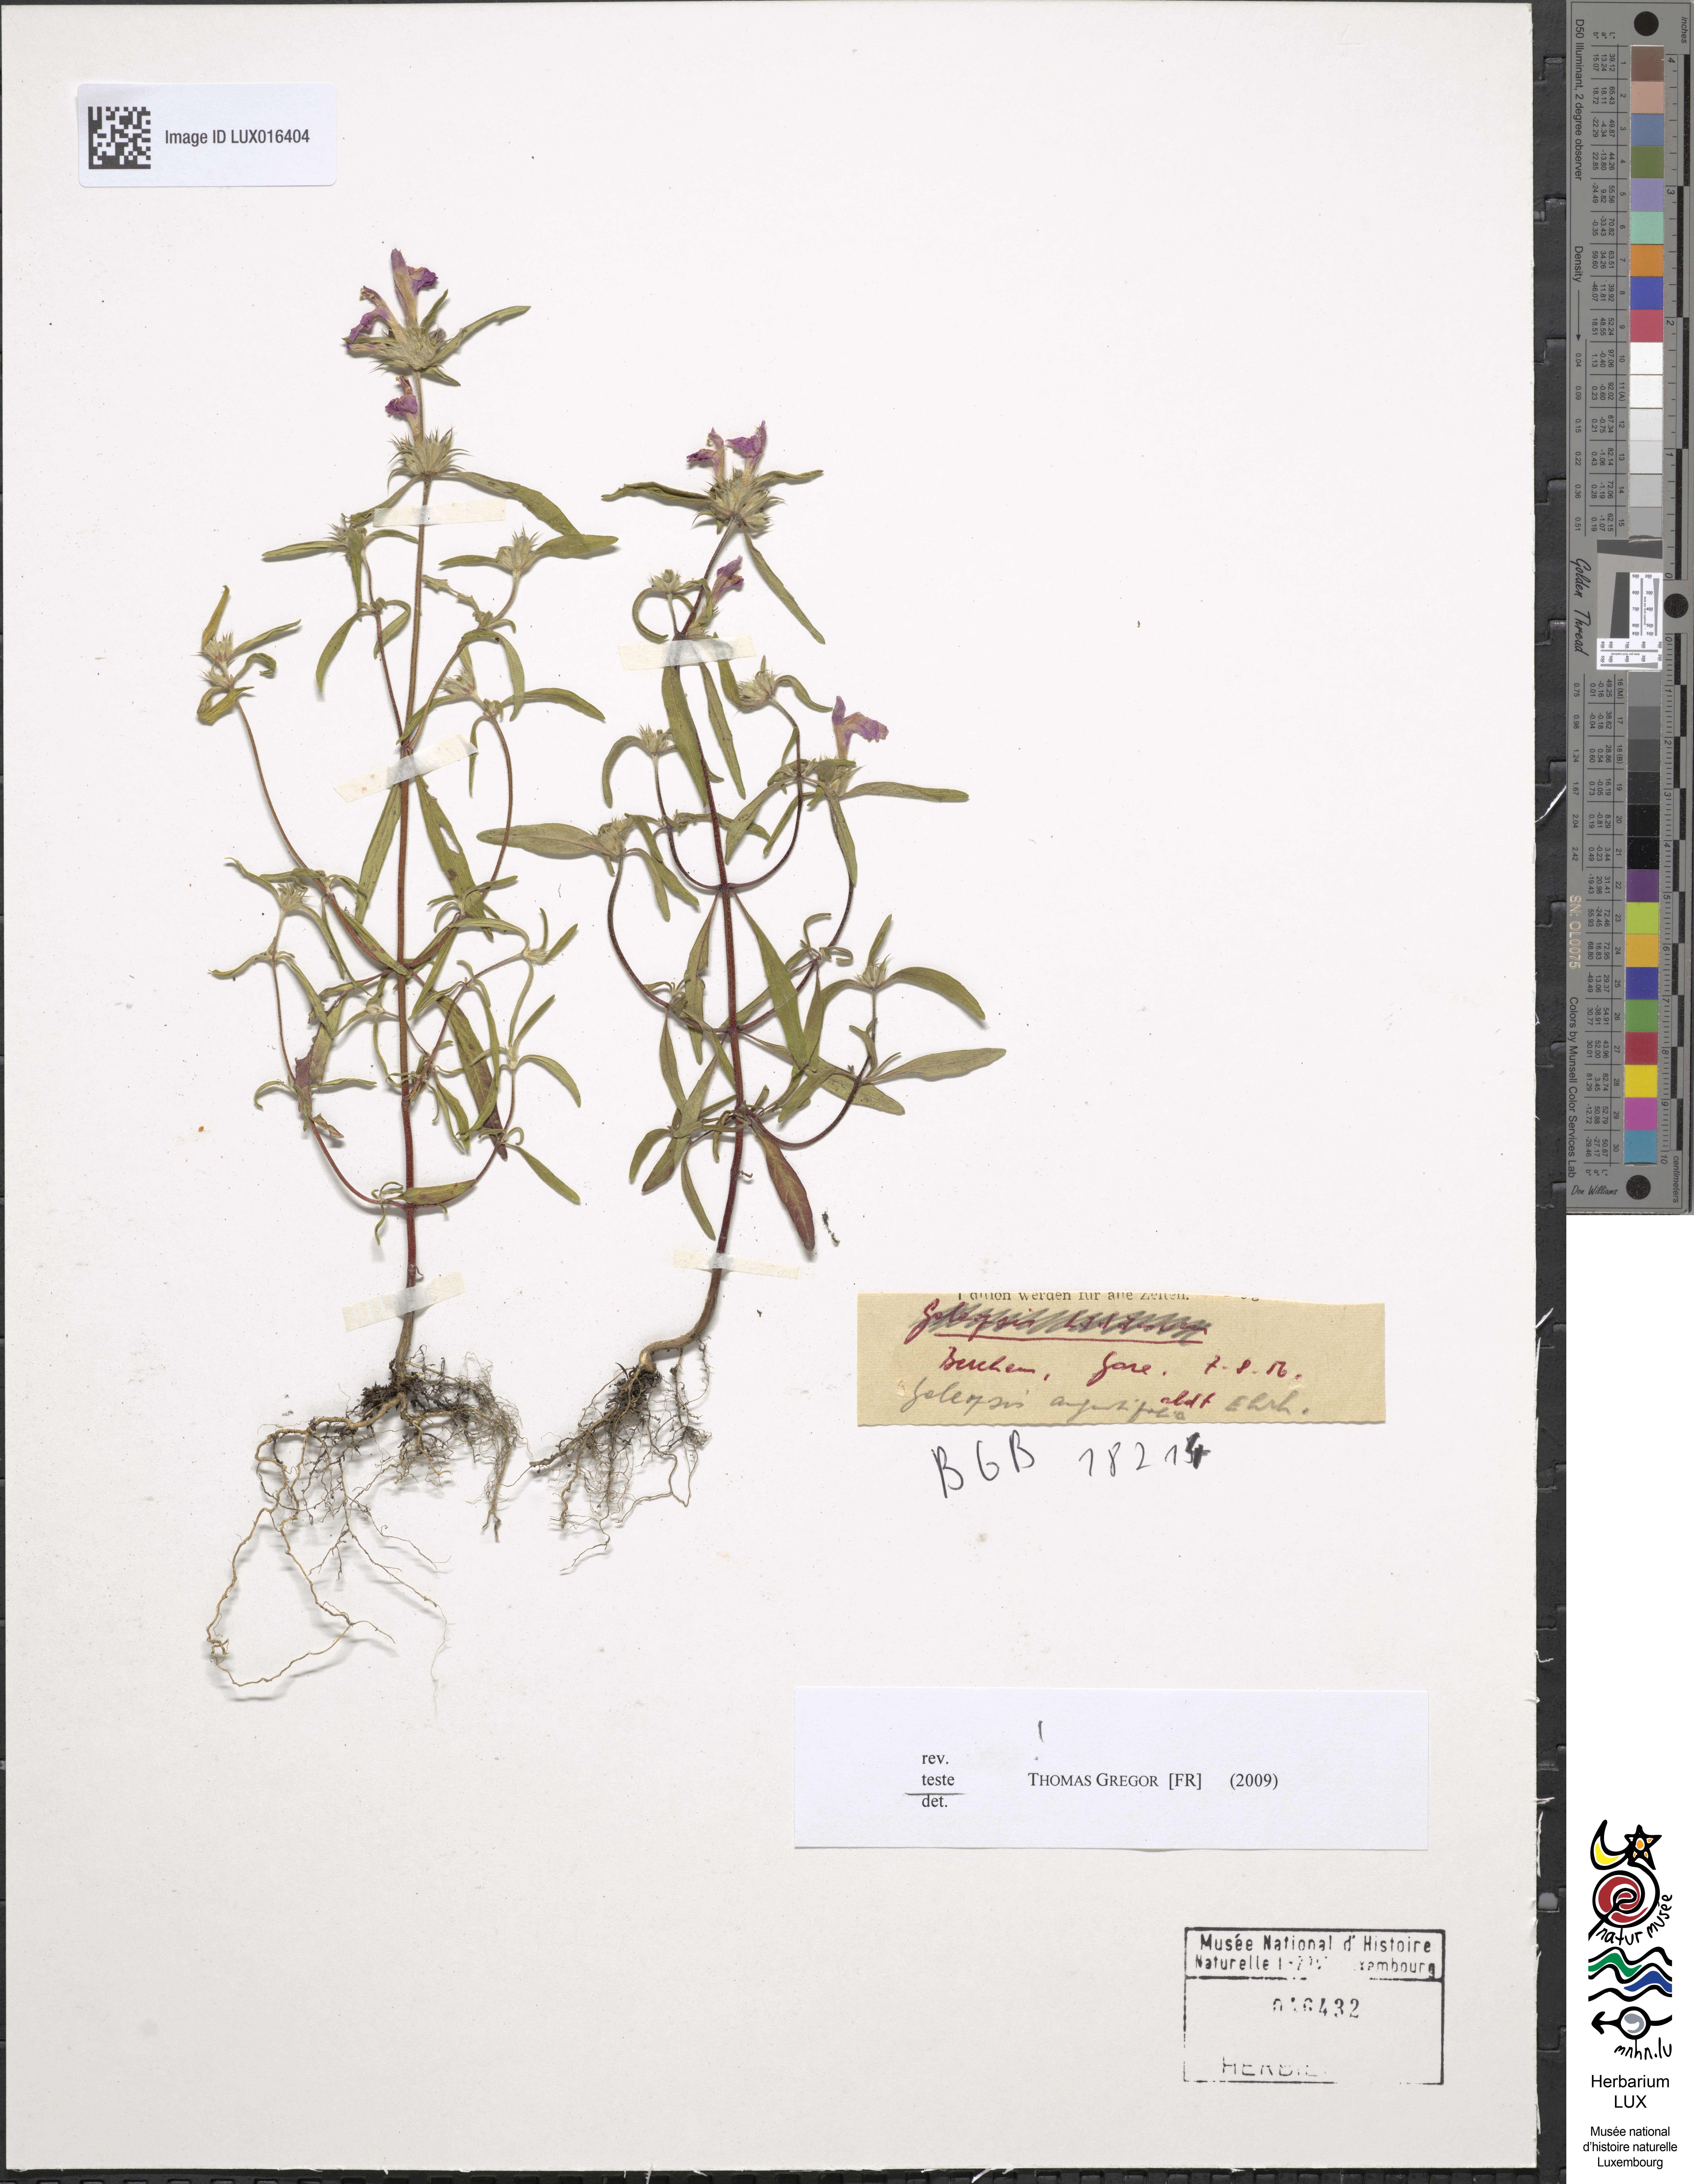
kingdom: Plantae
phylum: Tracheophyta
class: Magnoliopsida
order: Lamiales
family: Lamiaceae
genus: Galeopsis
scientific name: Galeopsis angustifolia
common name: Red hemp-nettle
